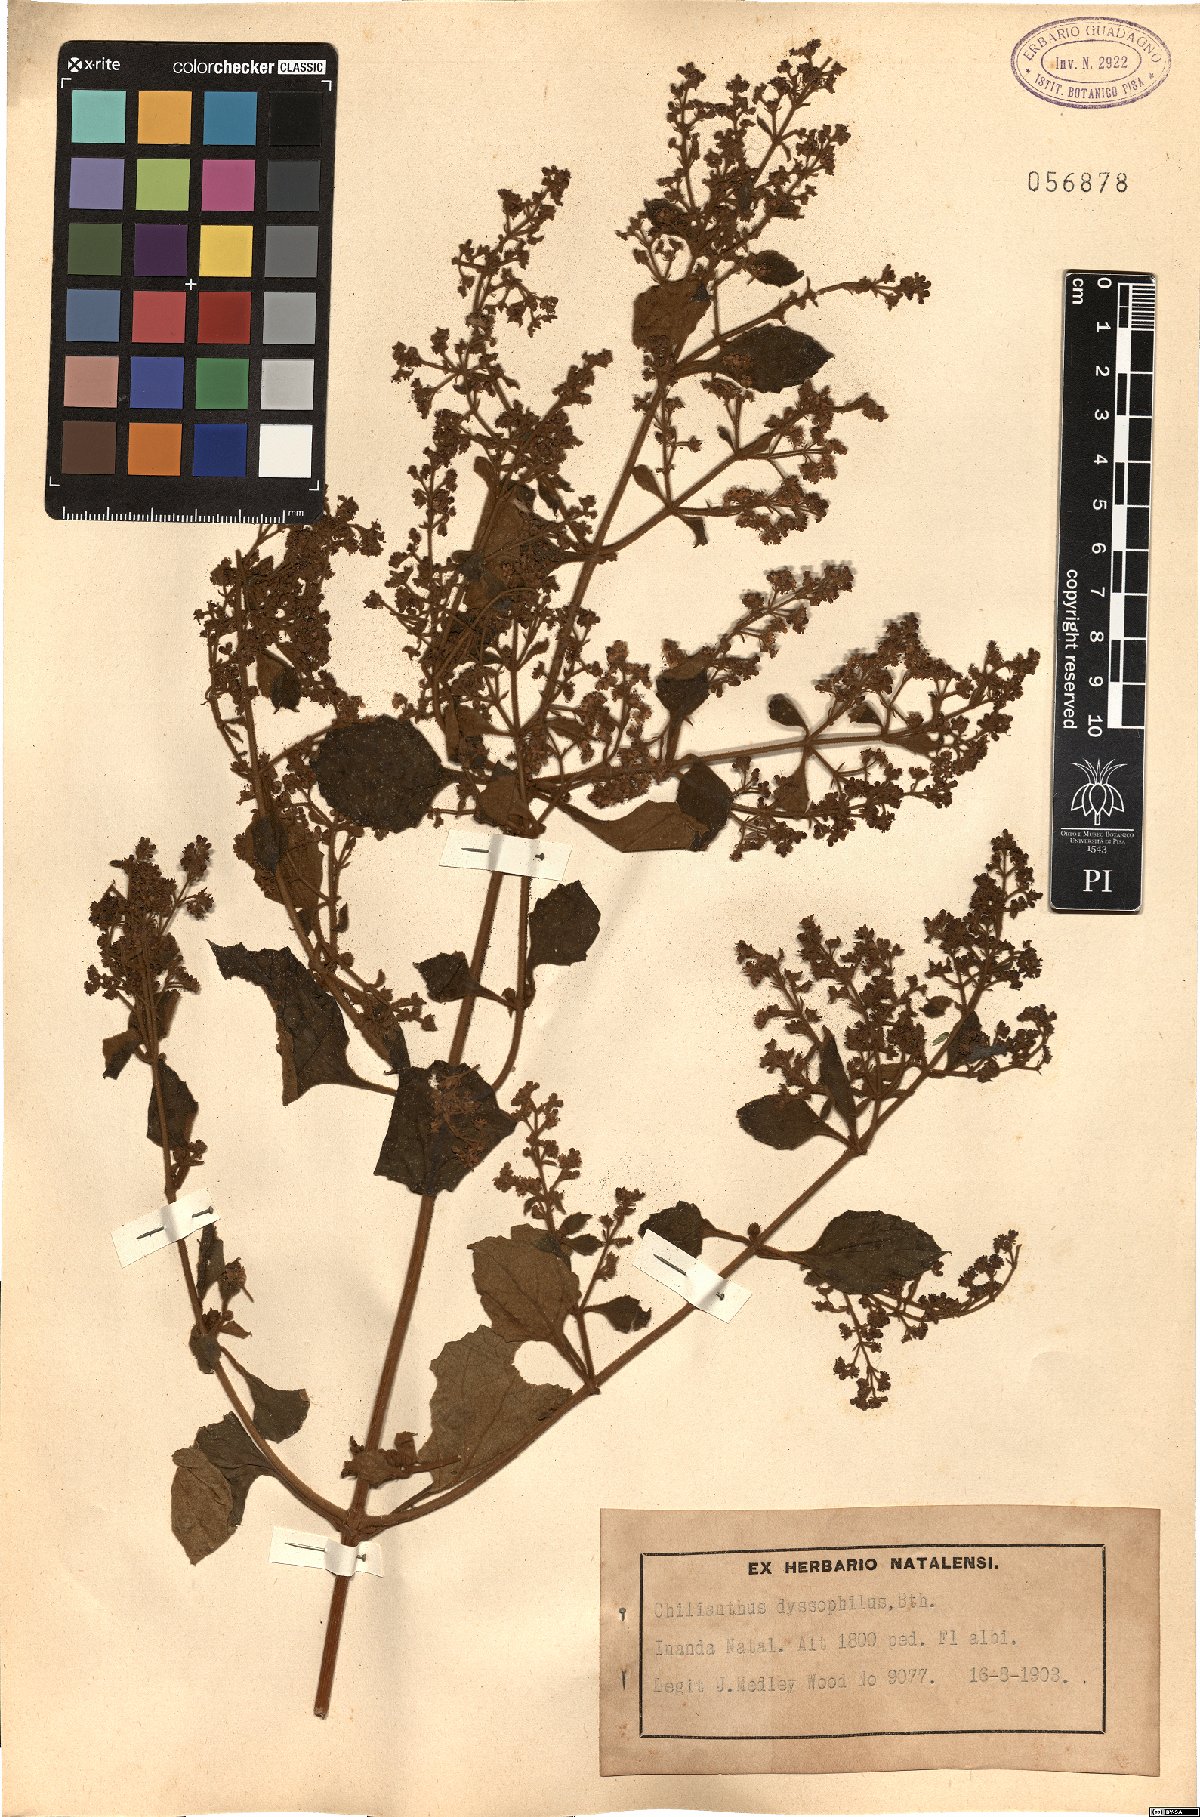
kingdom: Plantae
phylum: Tracheophyta
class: Magnoliopsida
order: Lamiales
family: Scrophulariaceae
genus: Buddleja
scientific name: Buddleja dysophylla
